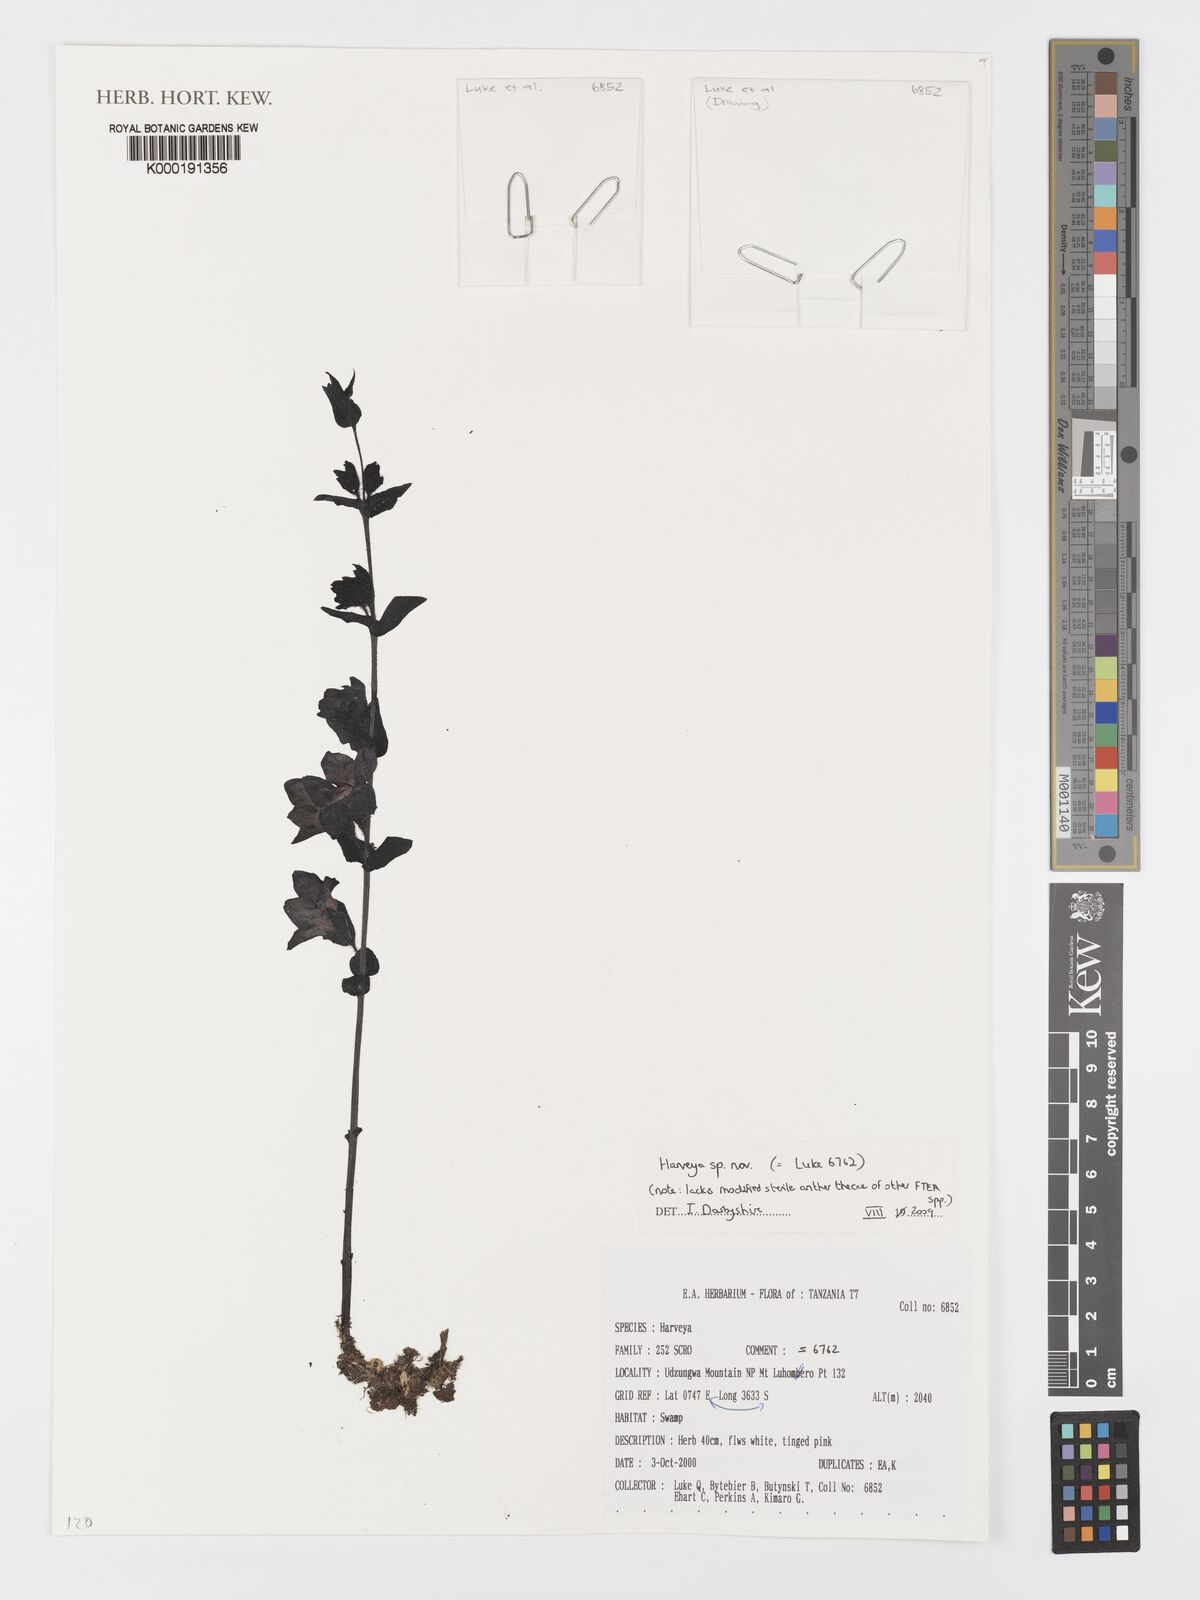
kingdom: Plantae
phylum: Tracheophyta
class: Magnoliopsida
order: Lamiales
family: Orobanchaceae
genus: Harveya
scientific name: Harveya
